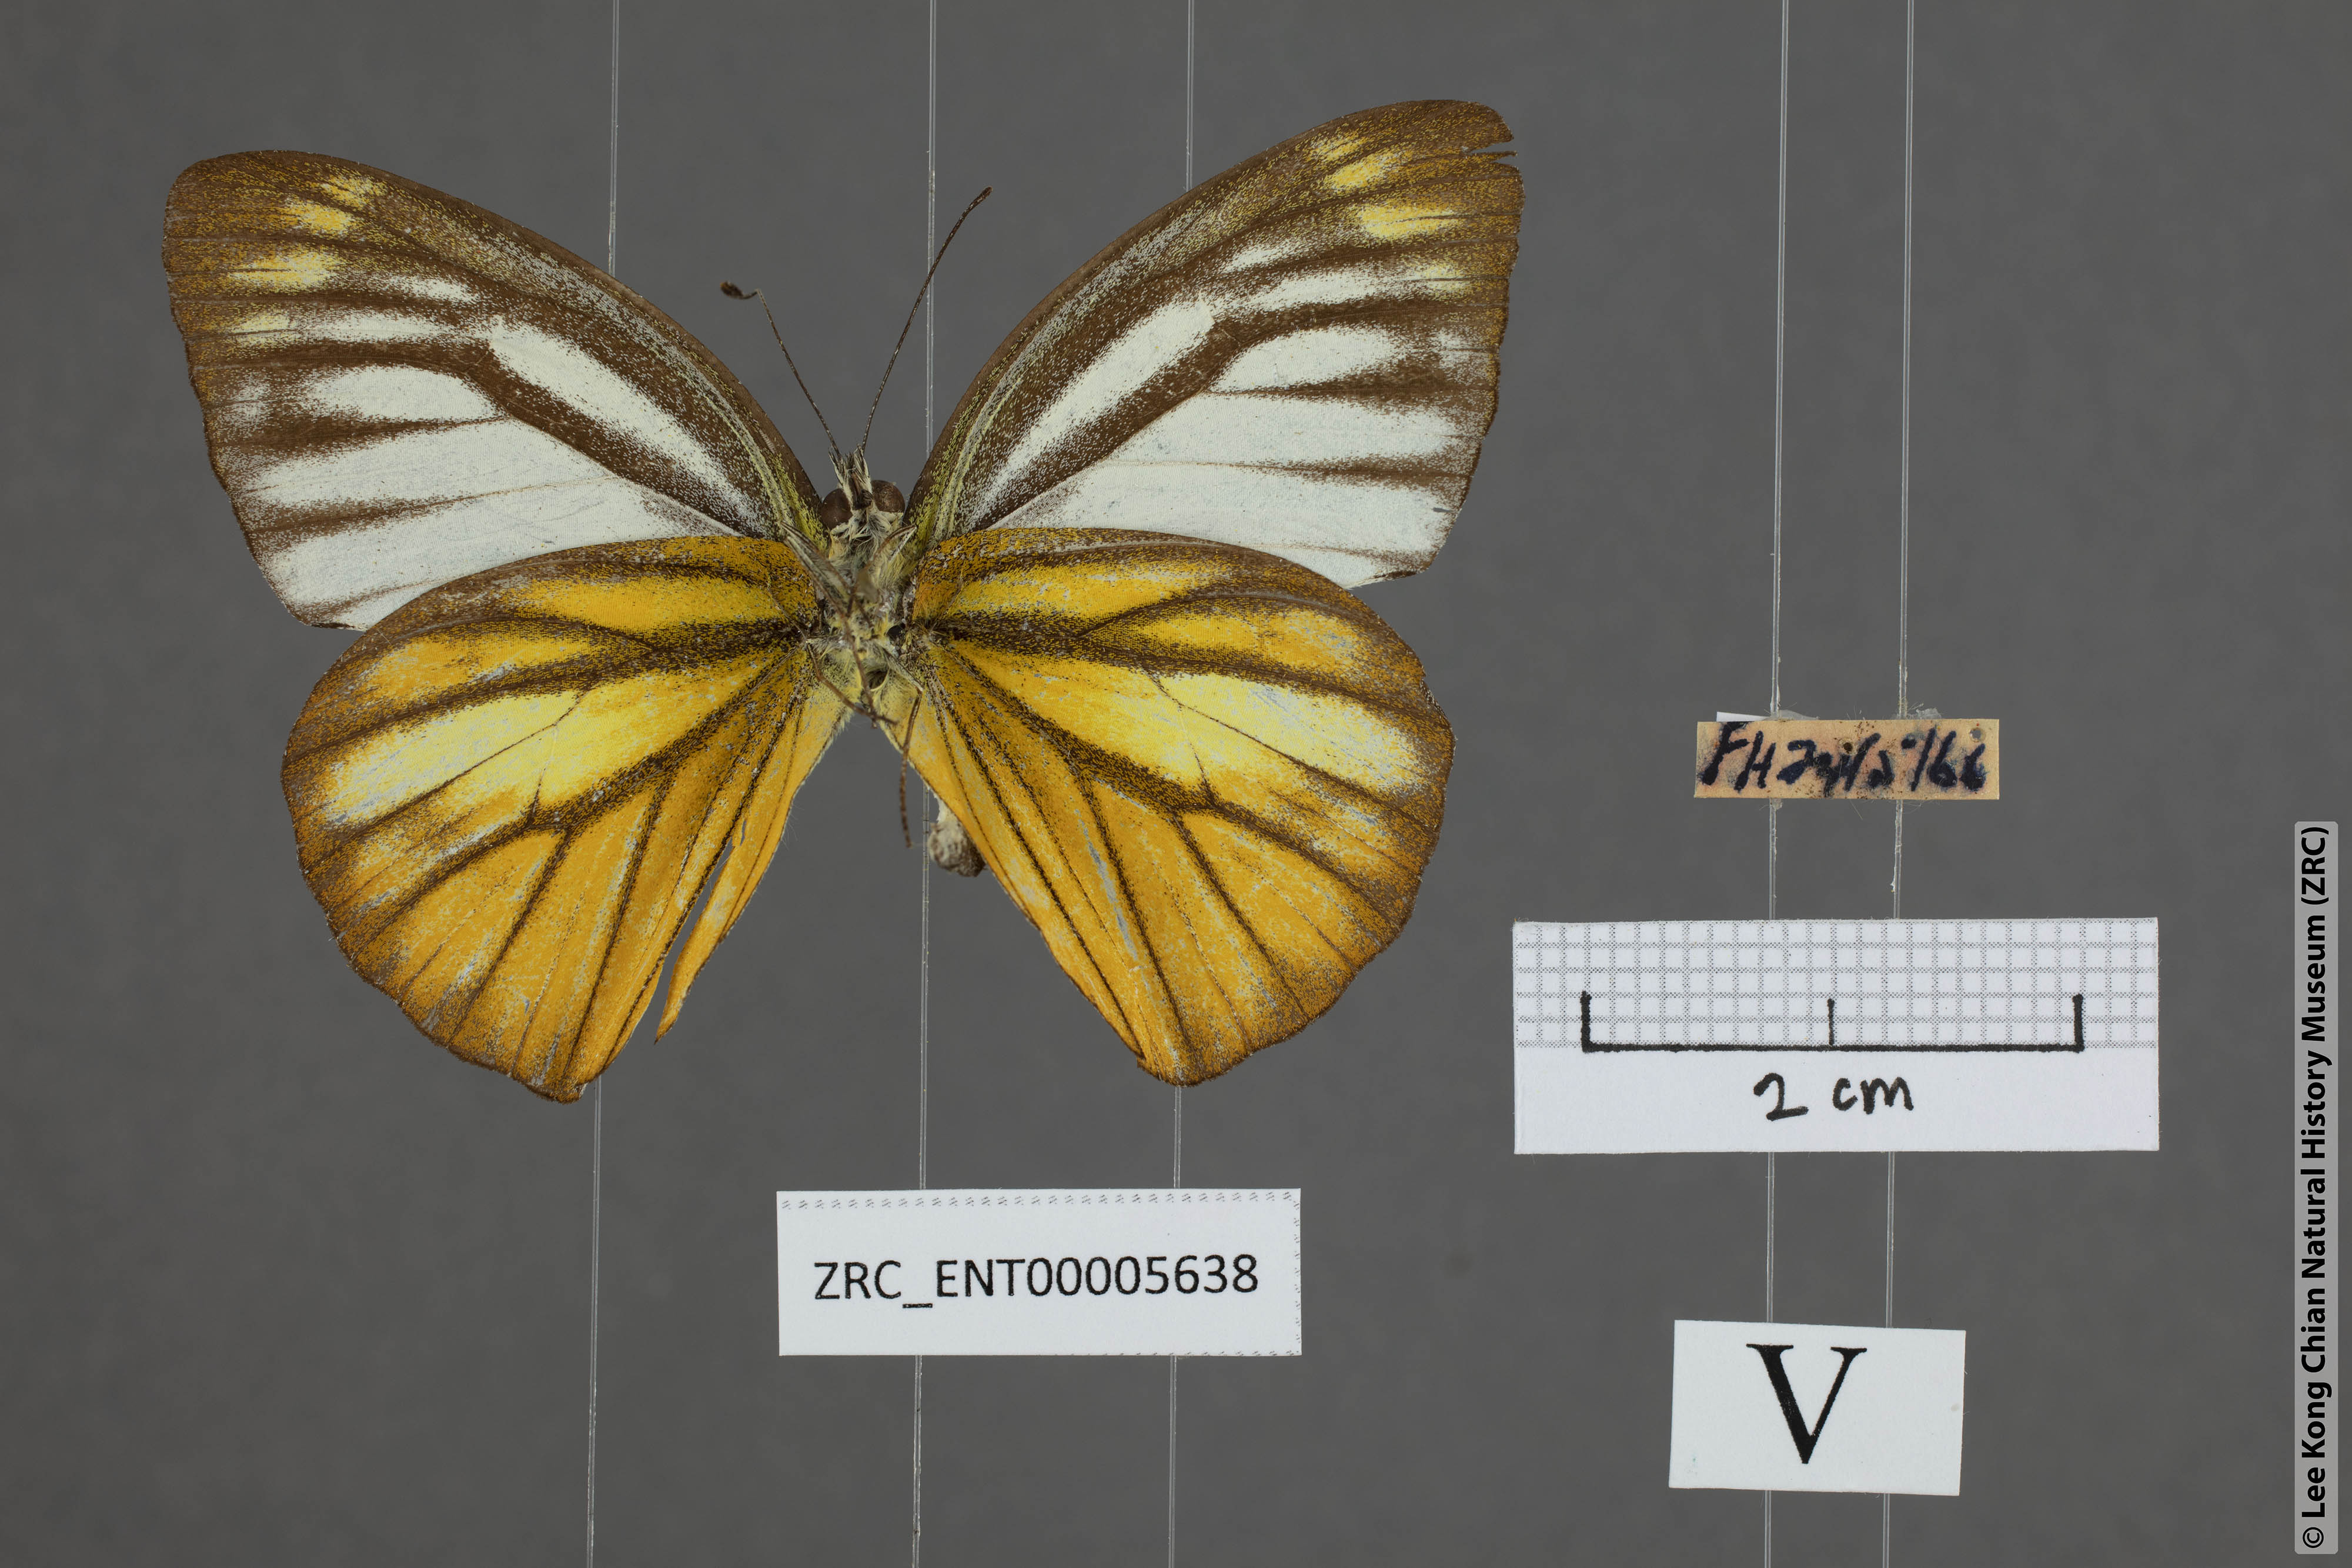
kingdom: Animalia
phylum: Arthropoda
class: Insecta
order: Lepidoptera
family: Pieridae
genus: Cepora
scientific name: Cepora nadina
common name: Lesser gull
